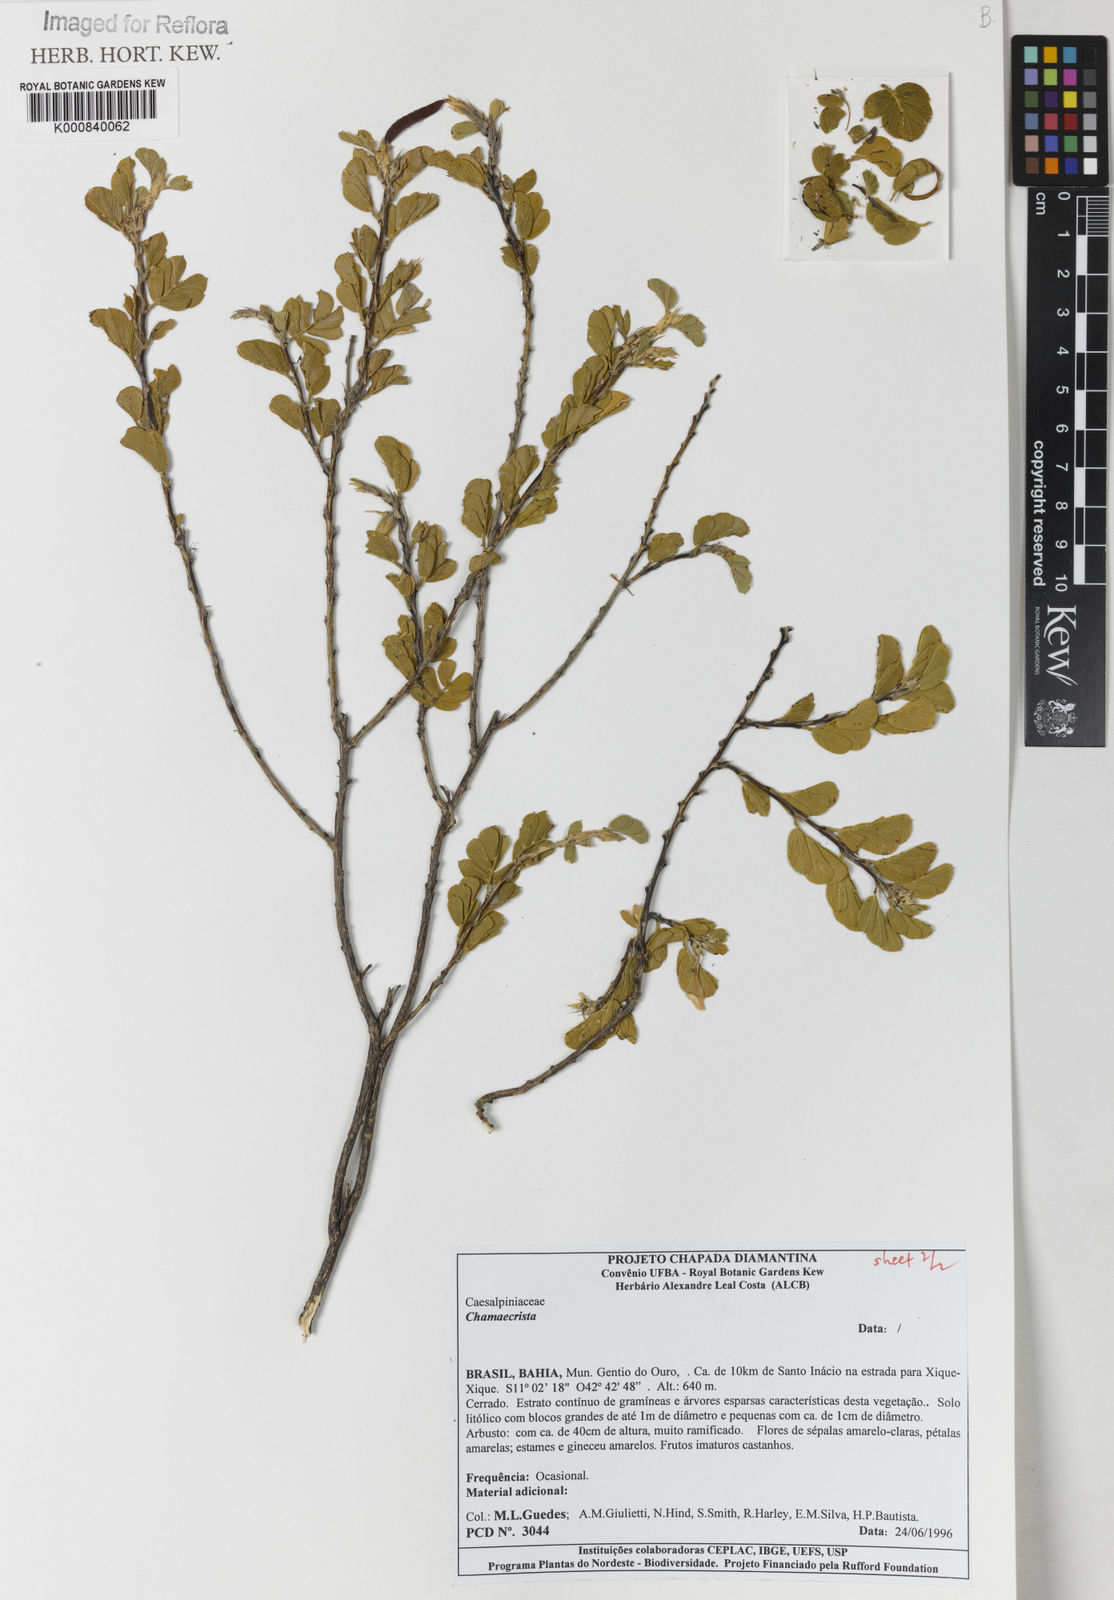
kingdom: Plantae
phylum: Tracheophyta
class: Magnoliopsida
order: Fabales
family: Fabaceae
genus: Chamaecrista
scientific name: Chamaecrista
